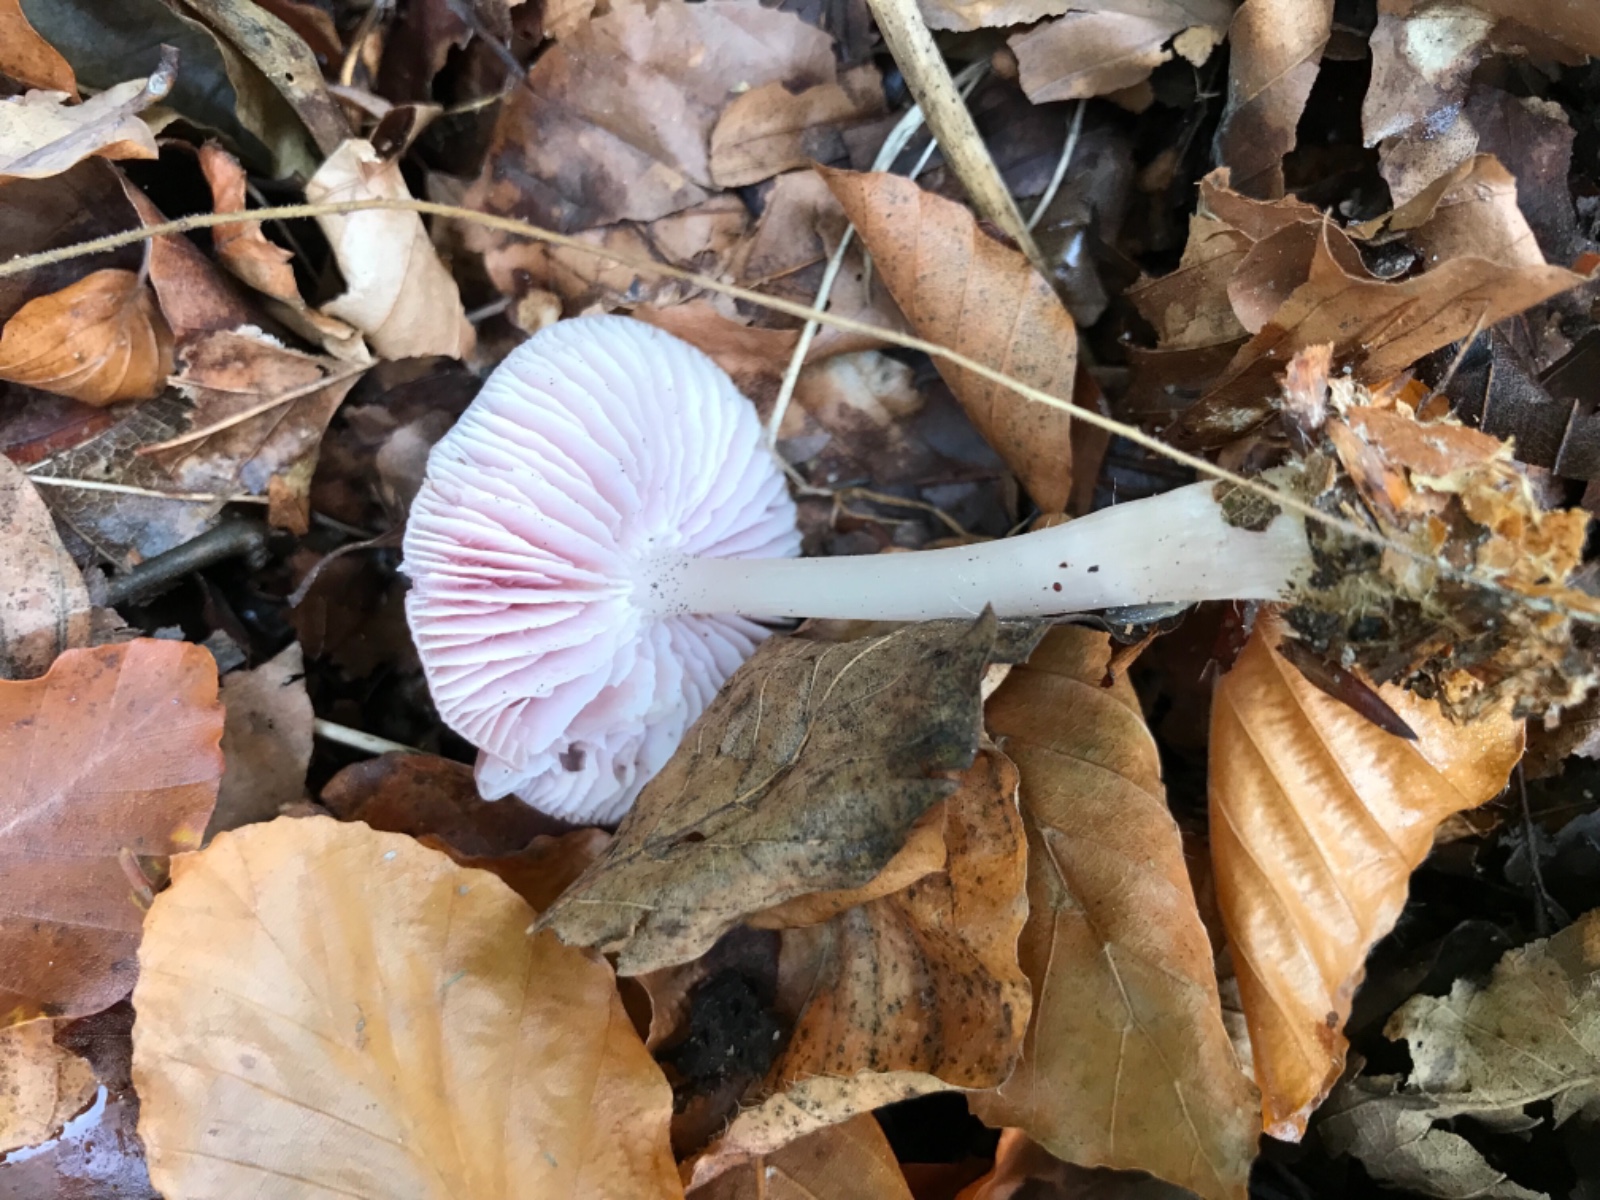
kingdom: Fungi
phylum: Basidiomycota
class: Agaricomycetes
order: Agaricales
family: Mycenaceae
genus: Mycena
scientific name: Mycena rosea
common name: rosa huesvamp
